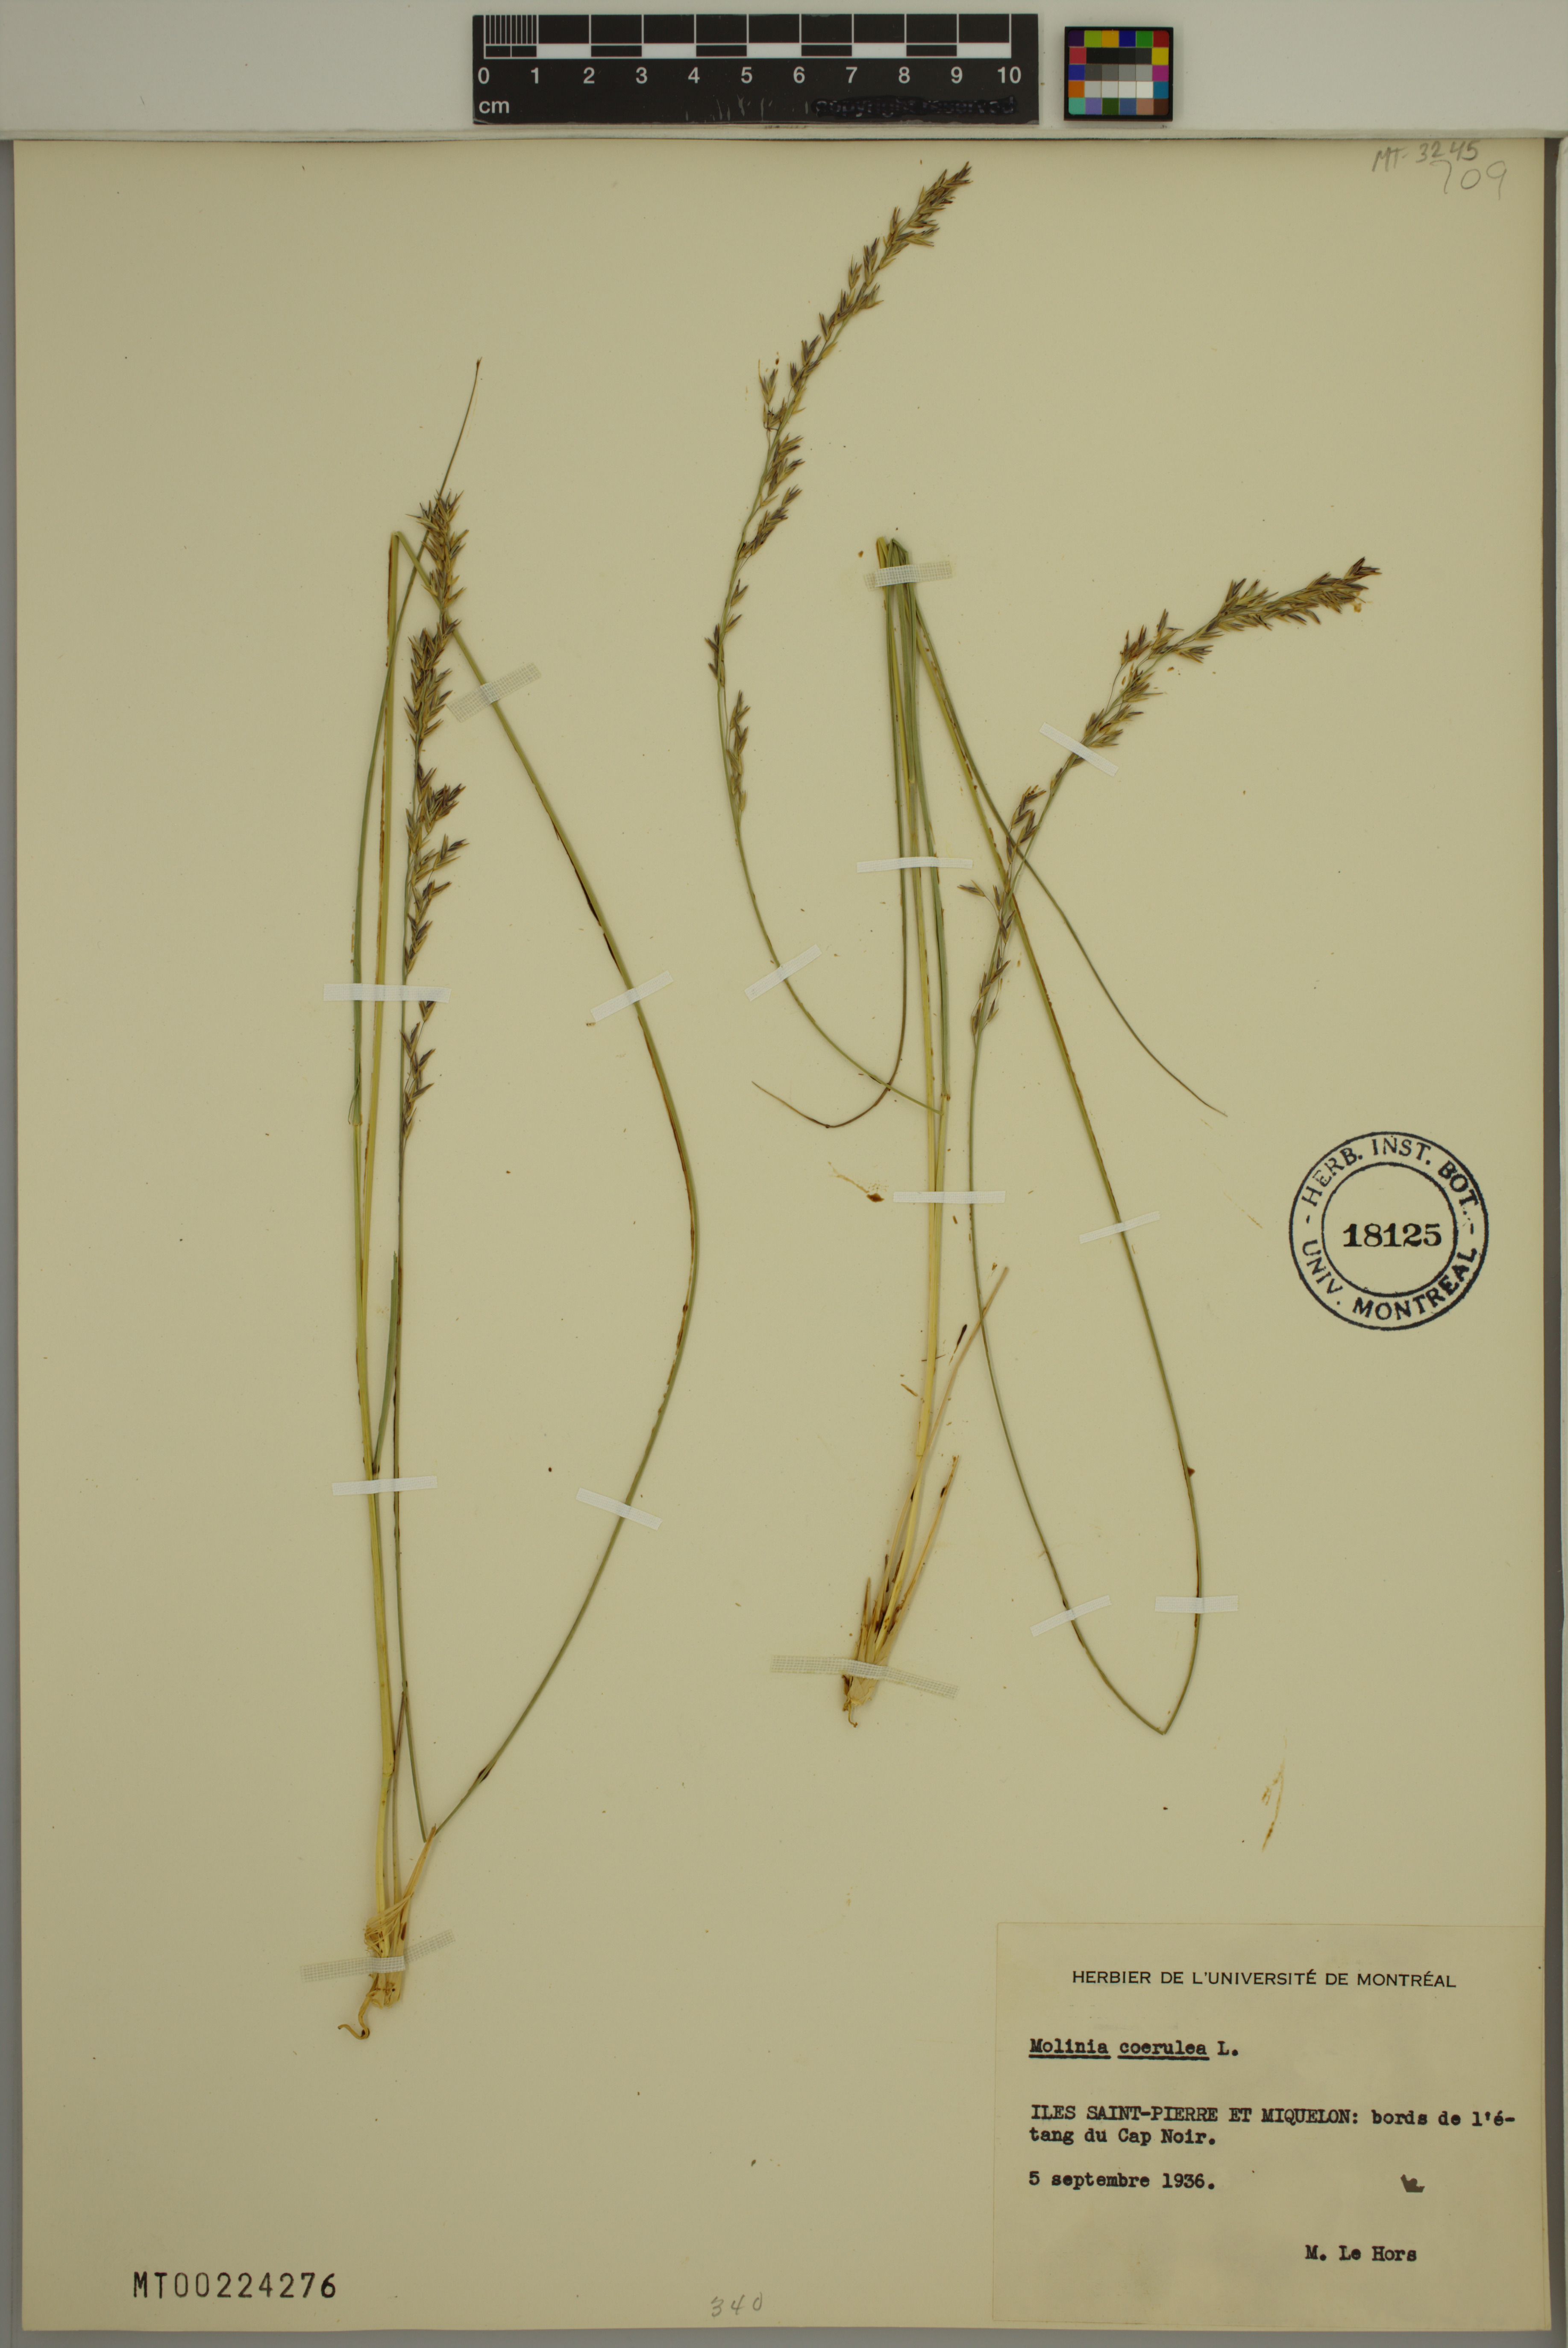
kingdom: Plantae
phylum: Tracheophyta
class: Liliopsida
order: Poales
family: Poaceae
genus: Molinia
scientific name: Molinia caerulea
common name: Purple moor-grass
